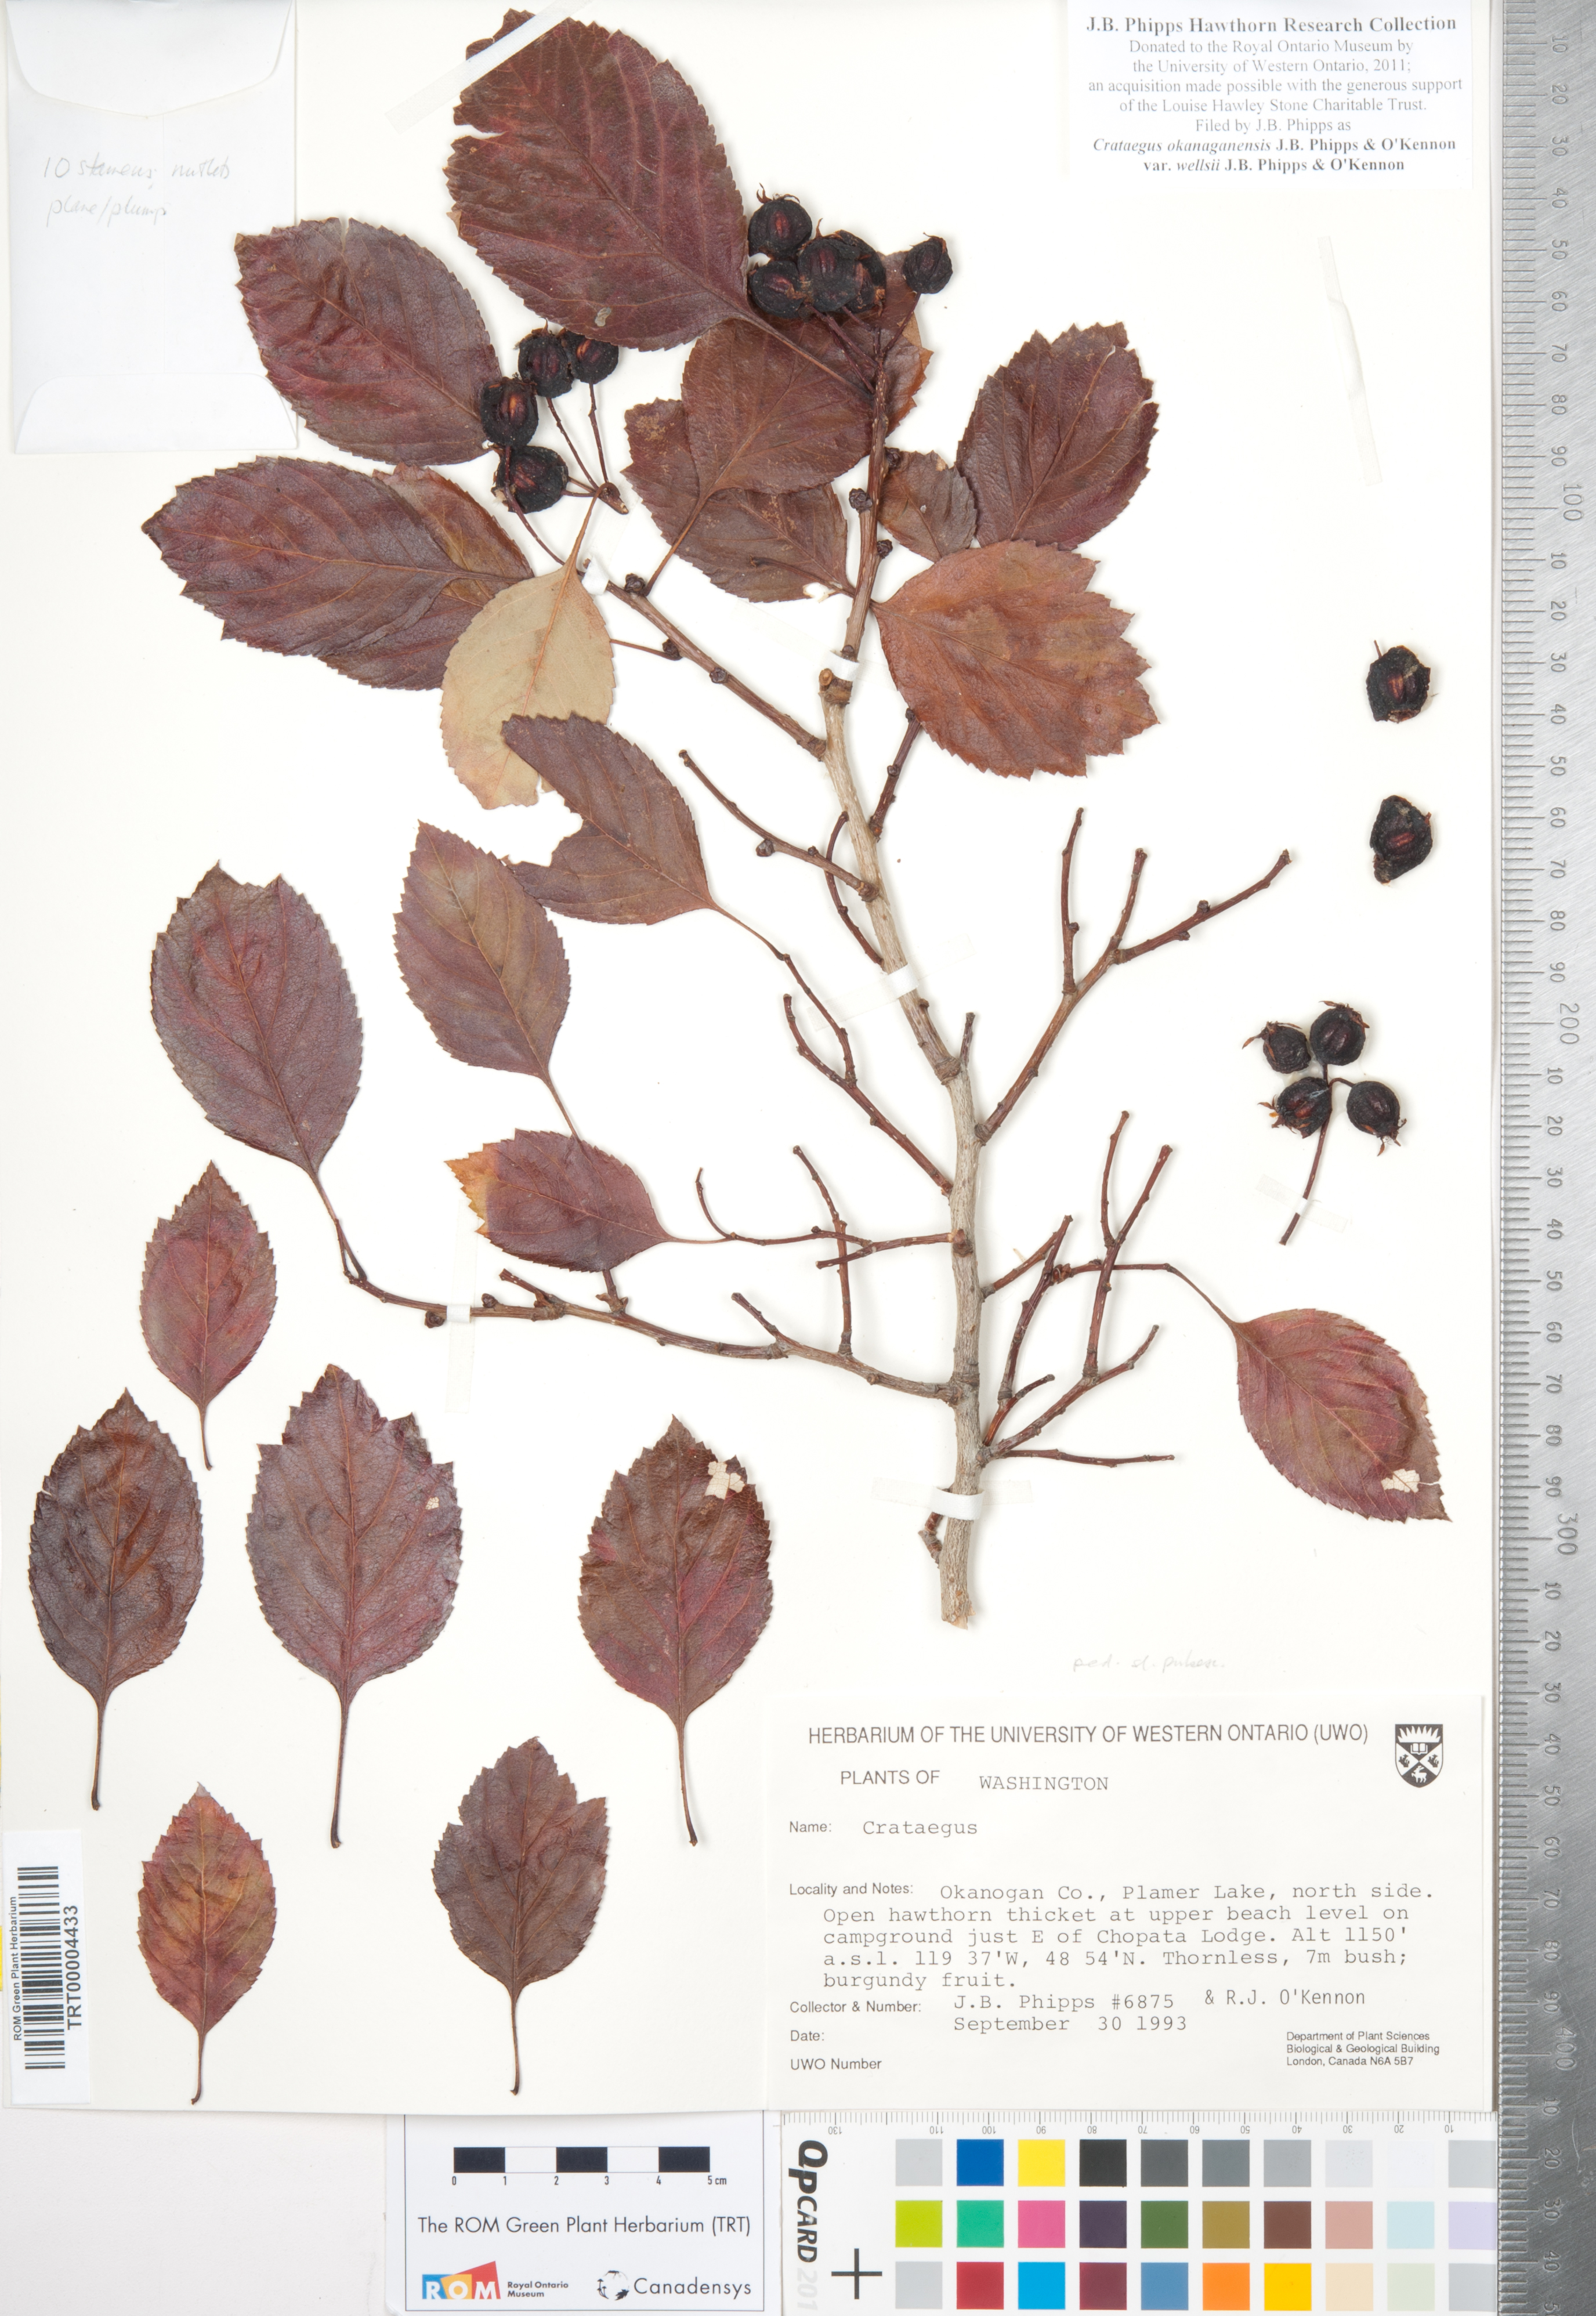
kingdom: Plantae
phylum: Tracheophyta
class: Magnoliopsida
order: Rosales
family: Rosaceae
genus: Crataegus
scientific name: Crataegus okanaganensis
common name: Okanagan valley hawthorn
